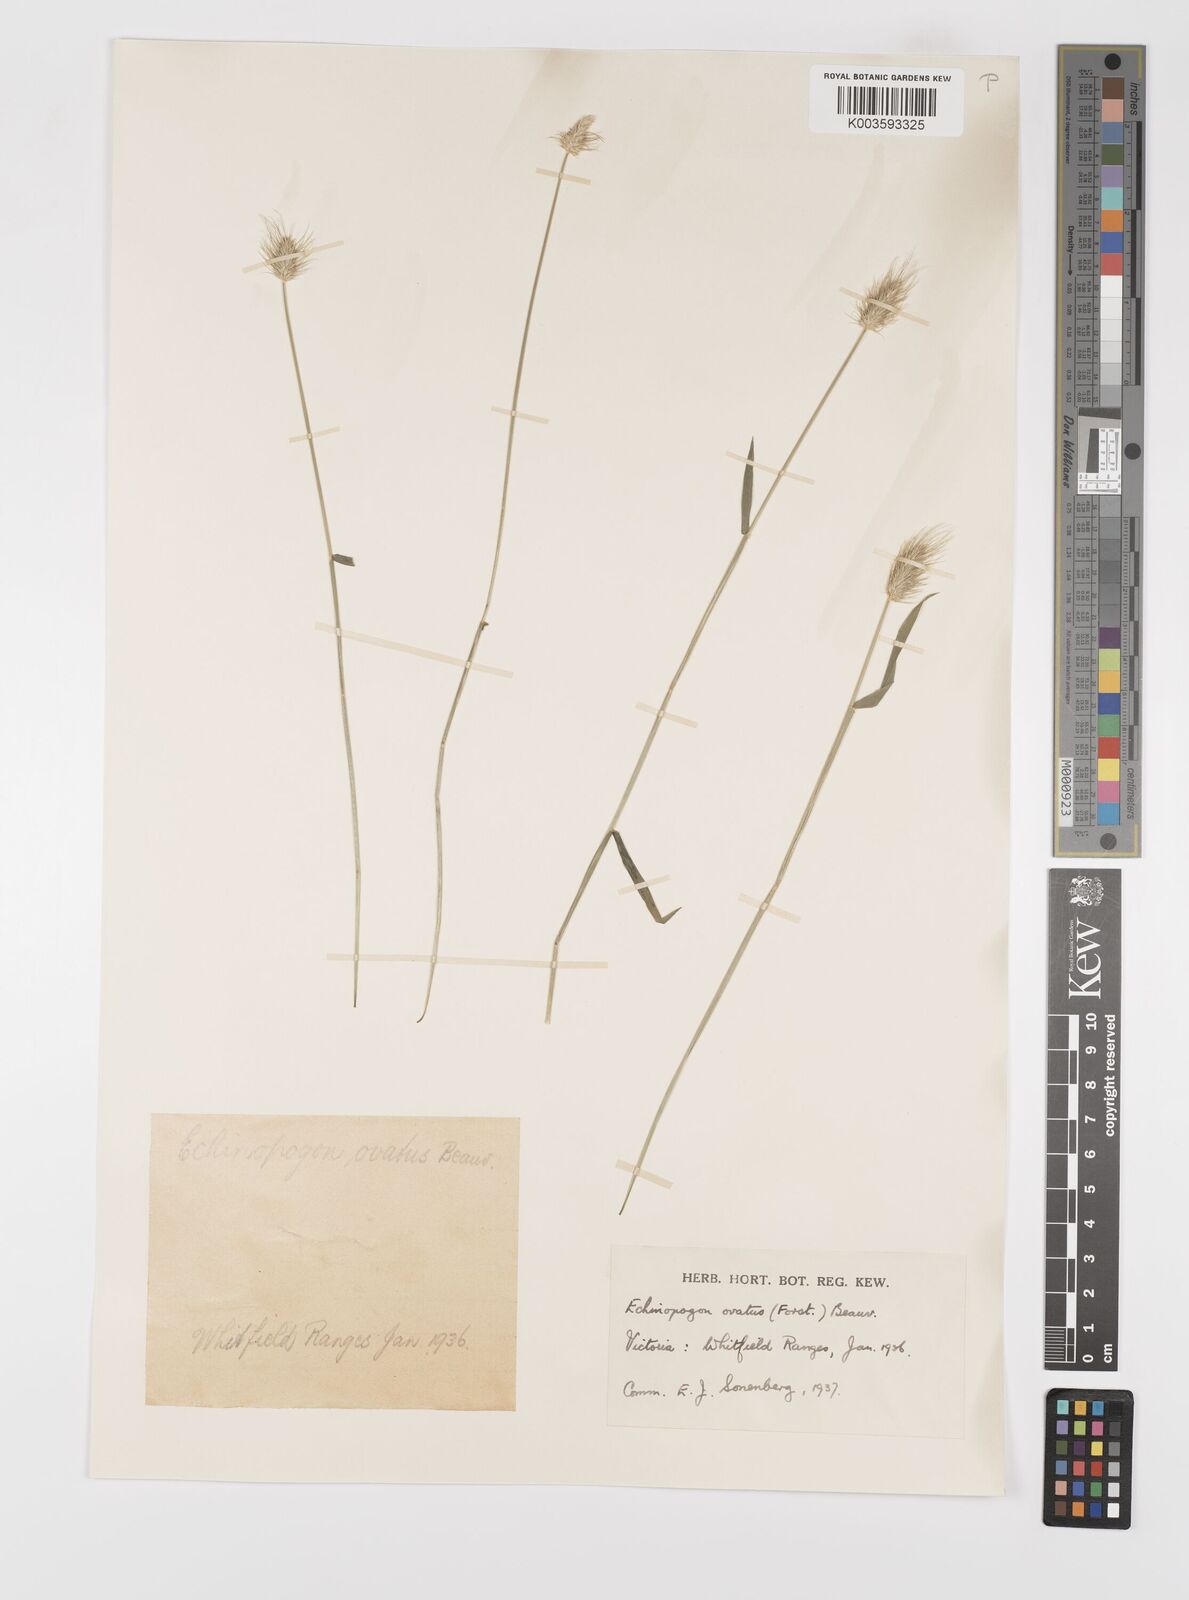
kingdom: Plantae
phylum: Tracheophyta
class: Liliopsida
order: Poales
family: Poaceae
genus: Echinopogon
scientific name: Echinopogon ovatus
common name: Hedgehog-grass
